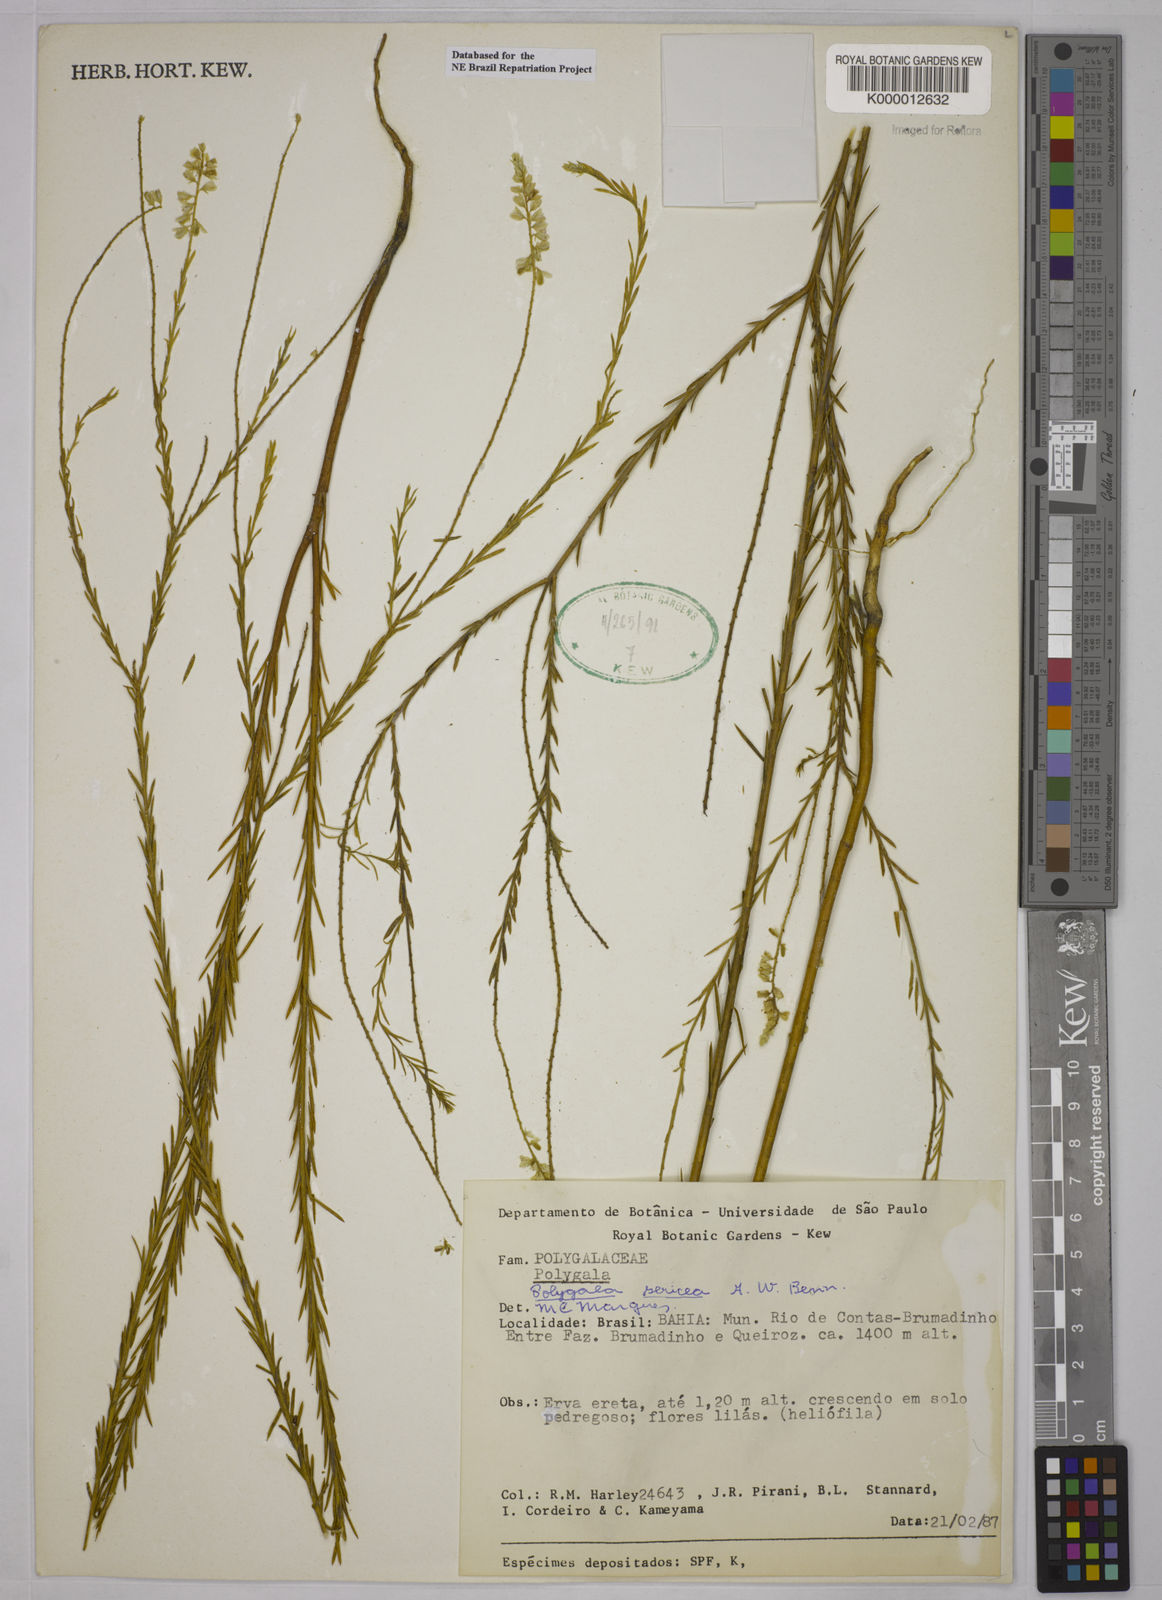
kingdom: Plantae
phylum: Tracheophyta
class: Magnoliopsida
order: Fabales
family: Polygalaceae
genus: Polygala
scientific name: Polygala sericea
